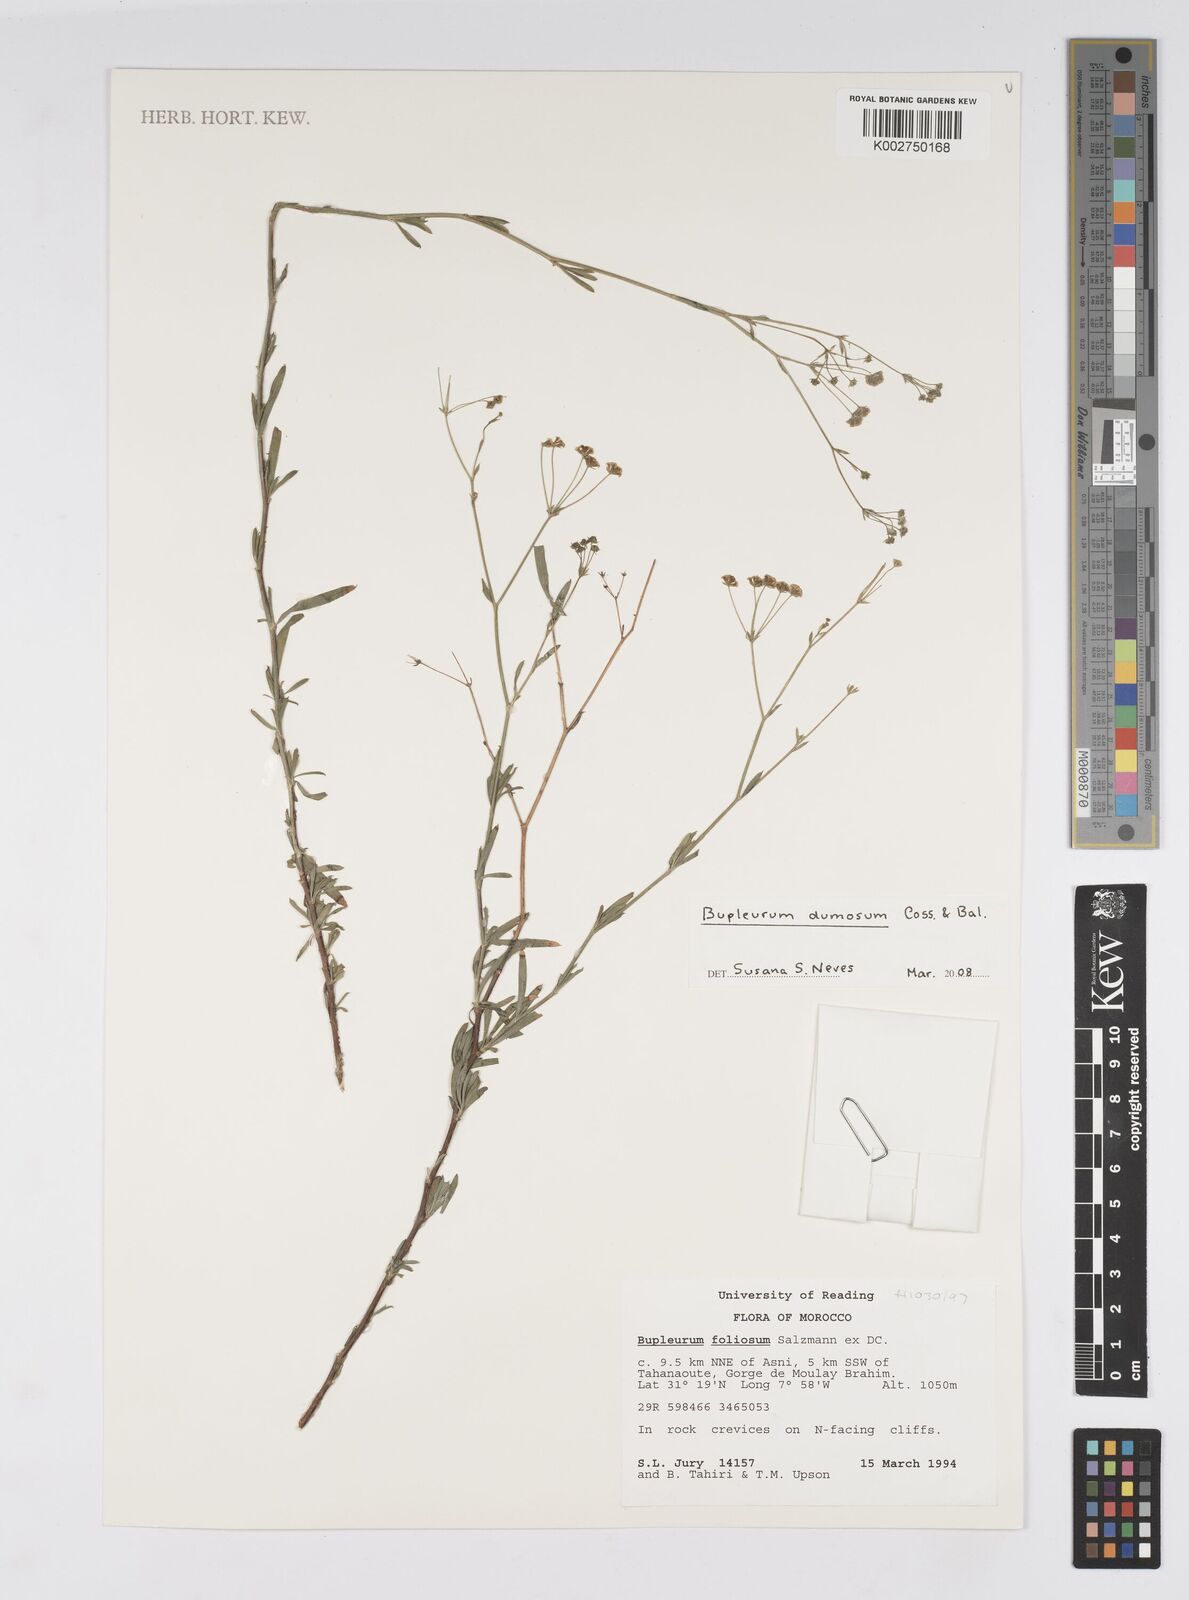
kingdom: Plantae
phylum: Tracheophyta
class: Magnoliopsida
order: Apiales
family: Apiaceae
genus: Bupleurum
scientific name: Bupleurum dumosum
